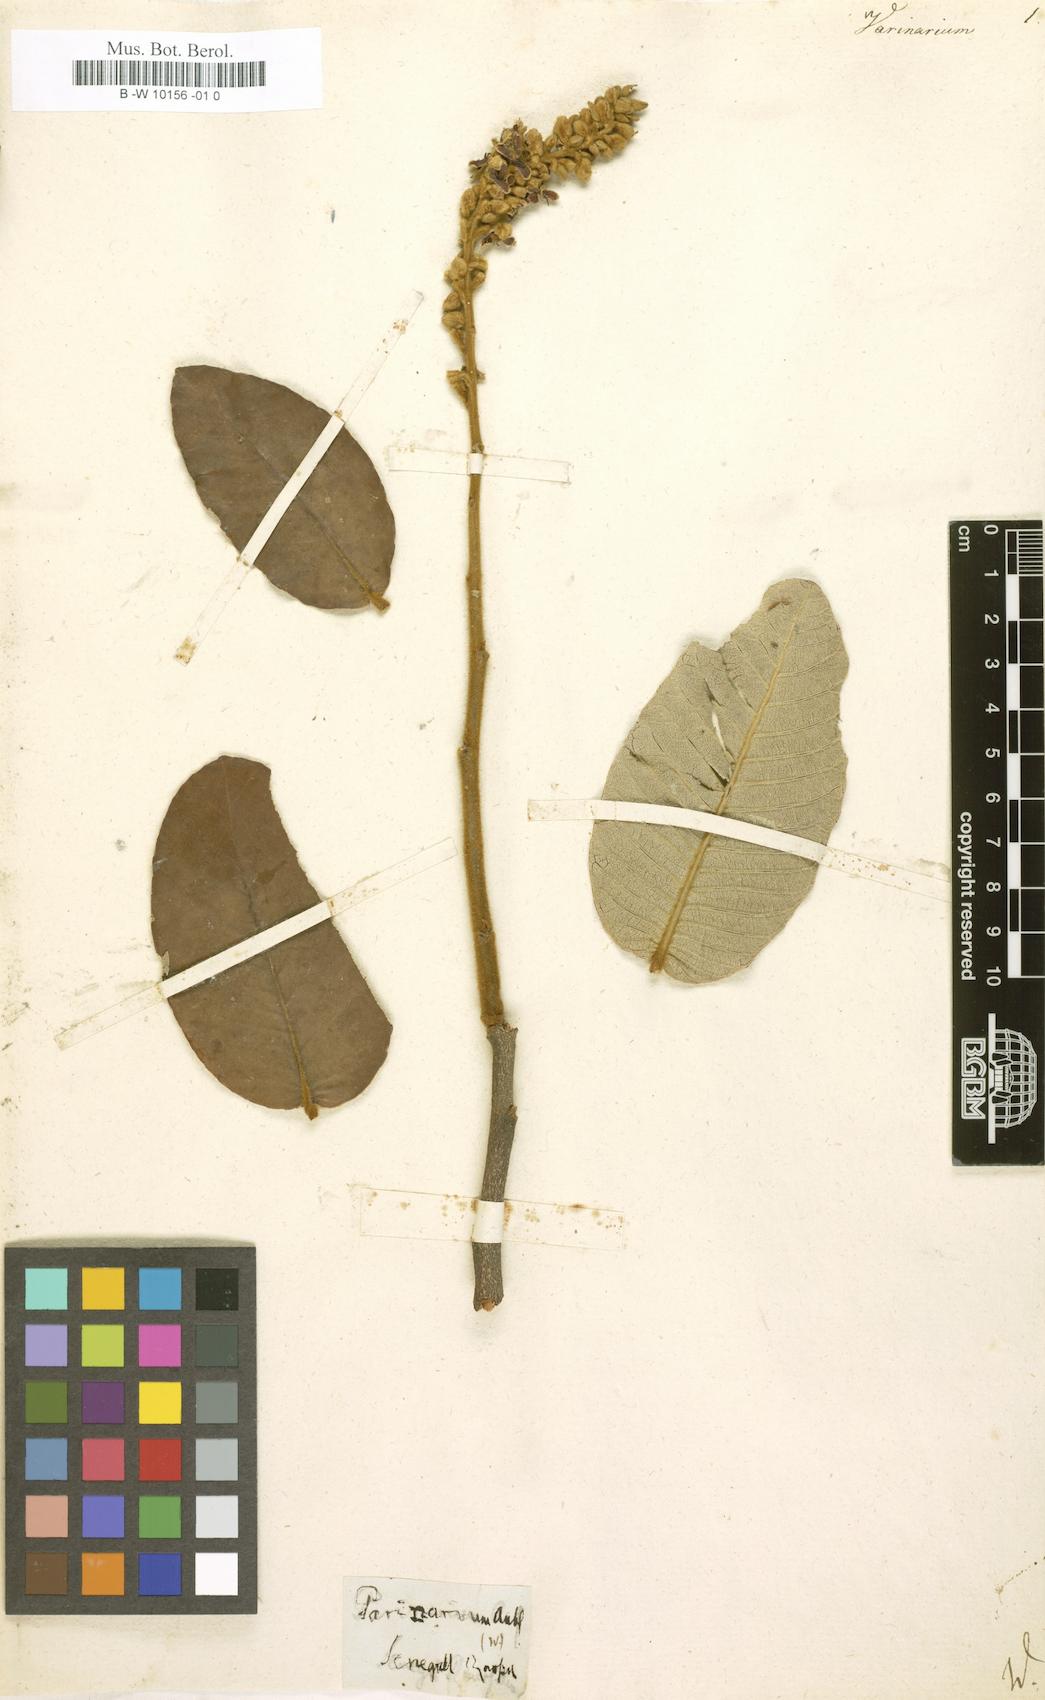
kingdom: Plantae
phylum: Tracheophyta
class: Magnoliopsida
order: Malpighiales
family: Chrysobalanaceae
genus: Parinari
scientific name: Parinari
